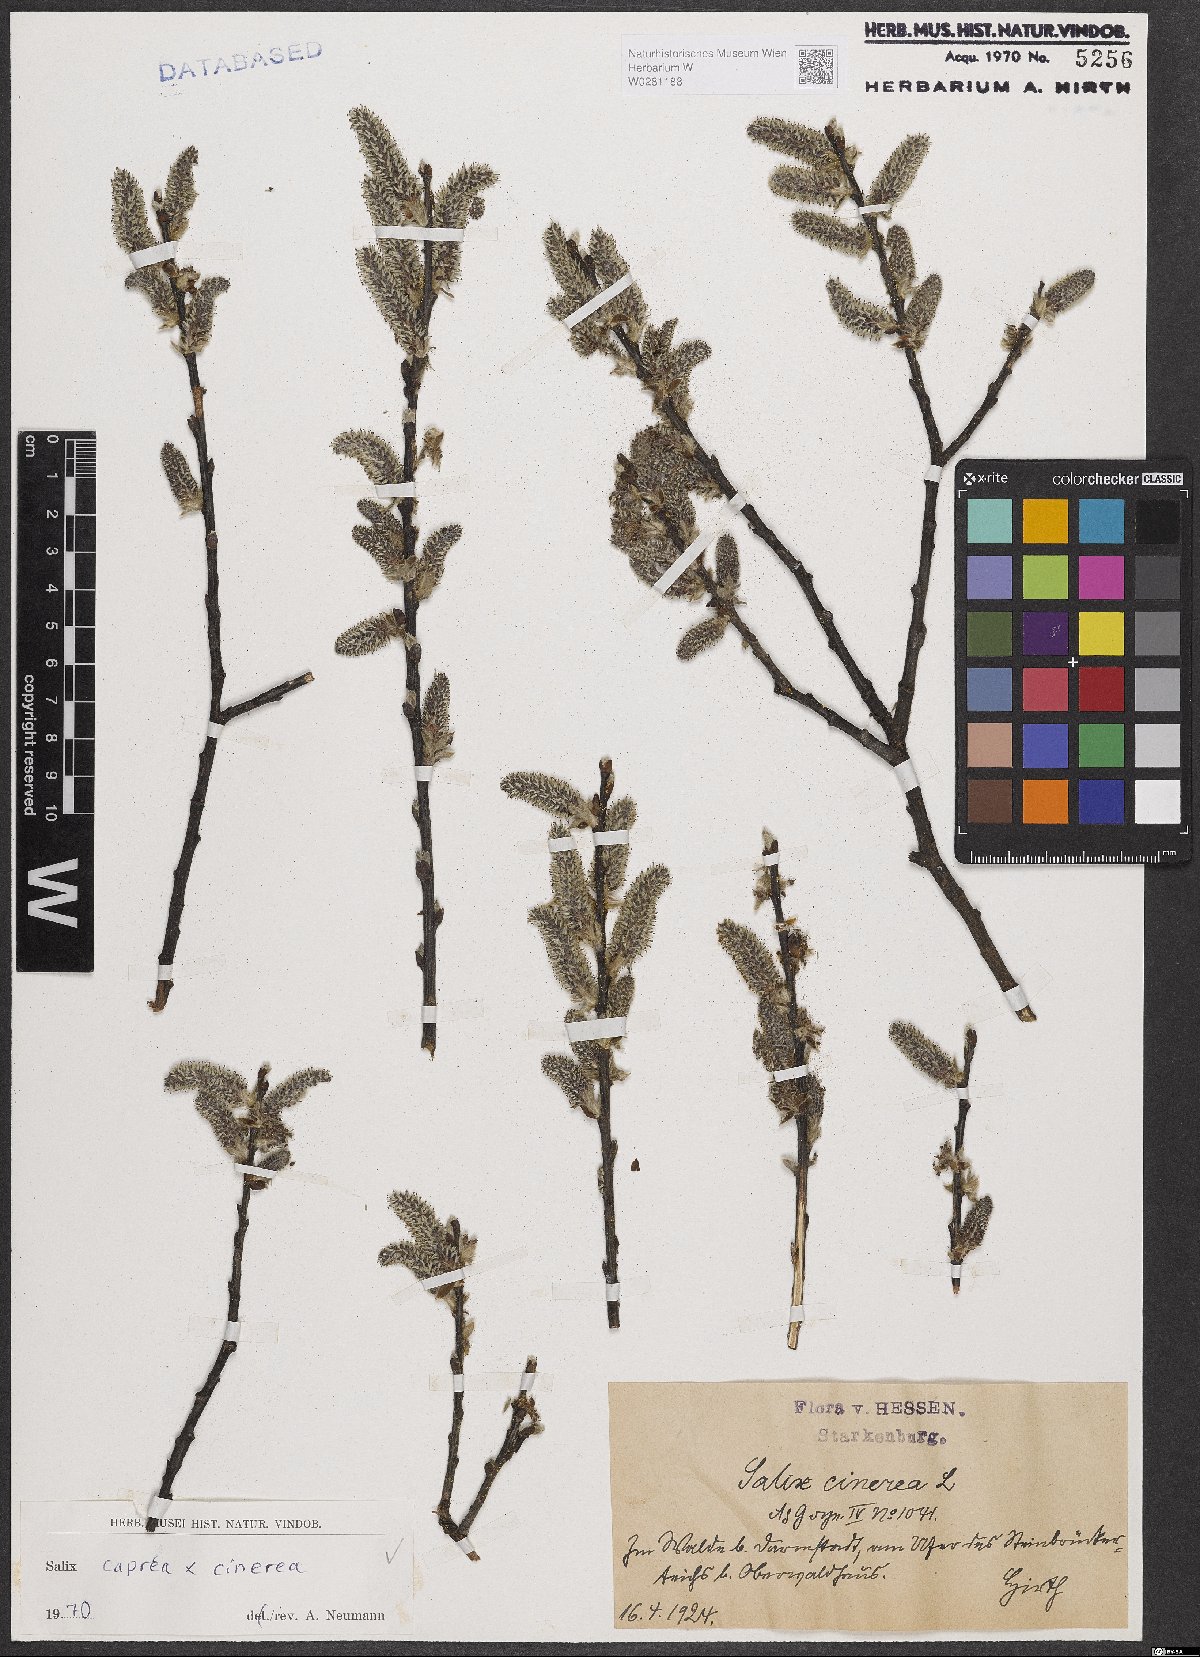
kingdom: Plantae
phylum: Tracheophyta
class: Magnoliopsida
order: Malpighiales
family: Salicaceae
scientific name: Salicaceae
